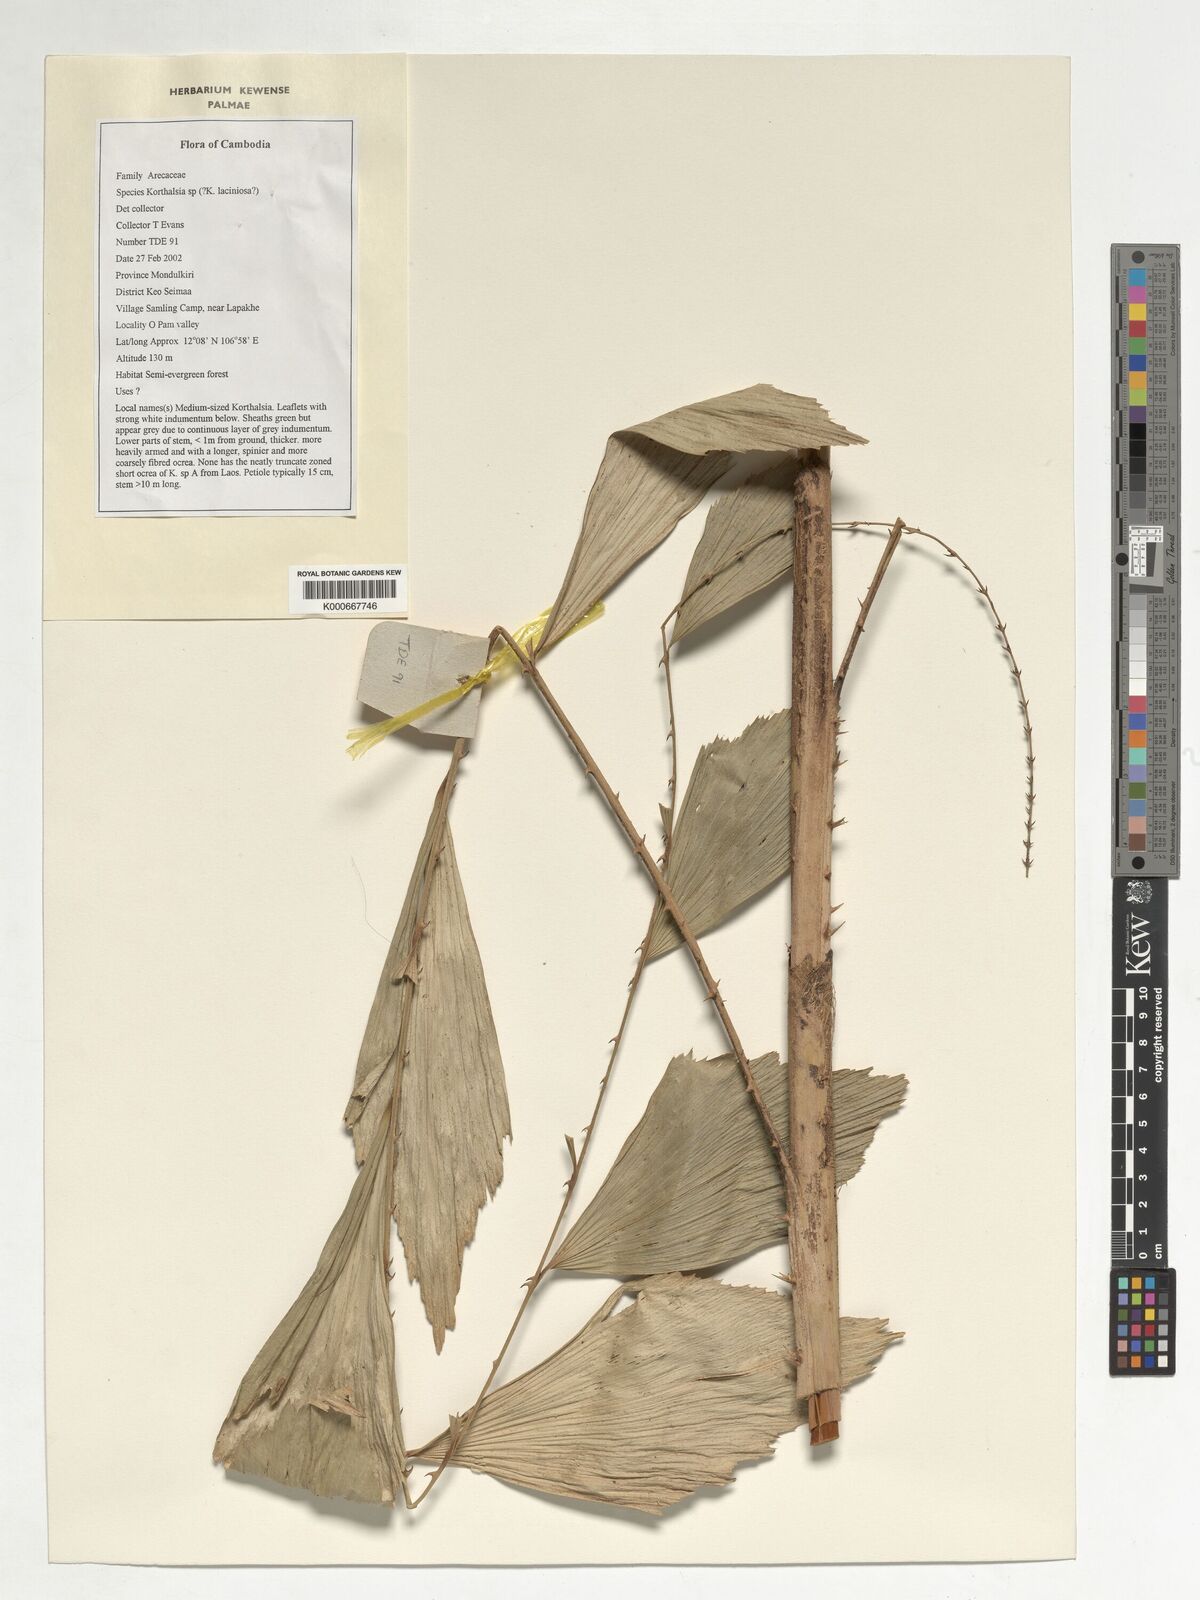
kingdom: Plantae
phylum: Tracheophyta
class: Liliopsida
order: Arecales
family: Arecaceae
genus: Korthalsia
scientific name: Korthalsia
